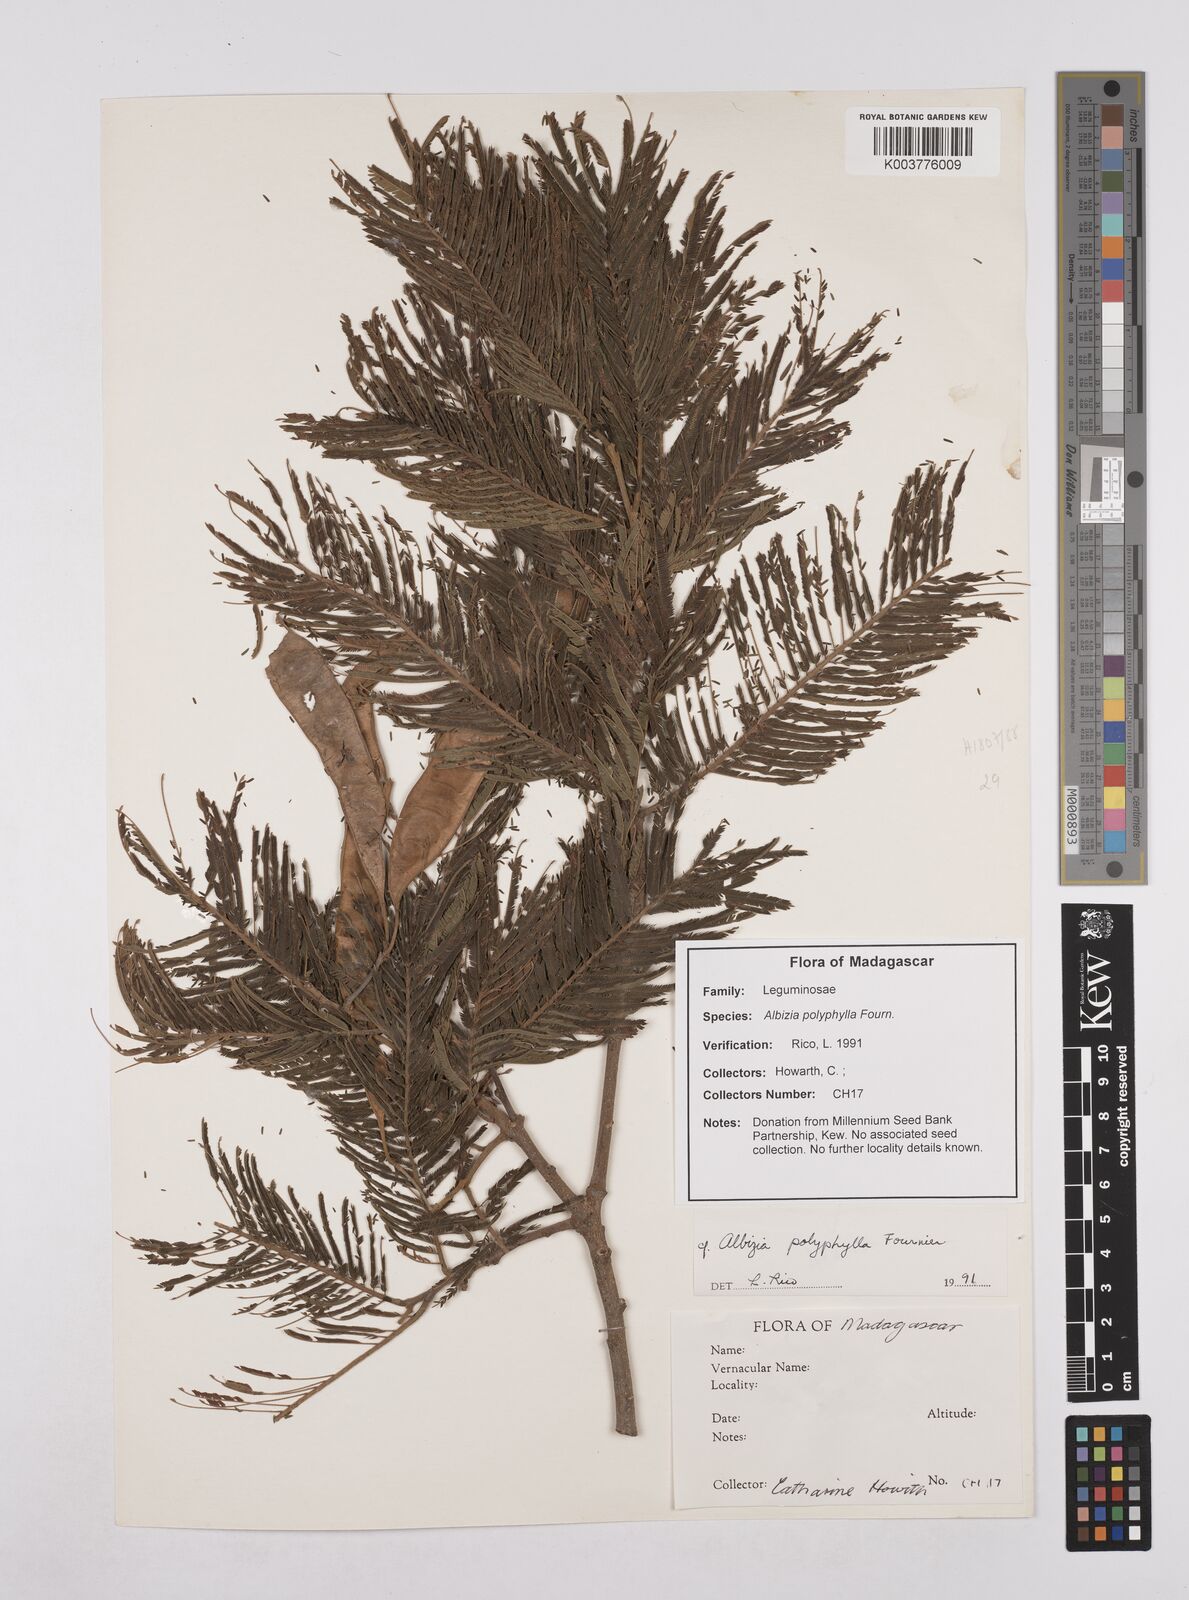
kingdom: Plantae
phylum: Tracheophyta
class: Magnoliopsida
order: Fabales
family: Fabaceae
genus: Albizia
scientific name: Albizia polyphylla
